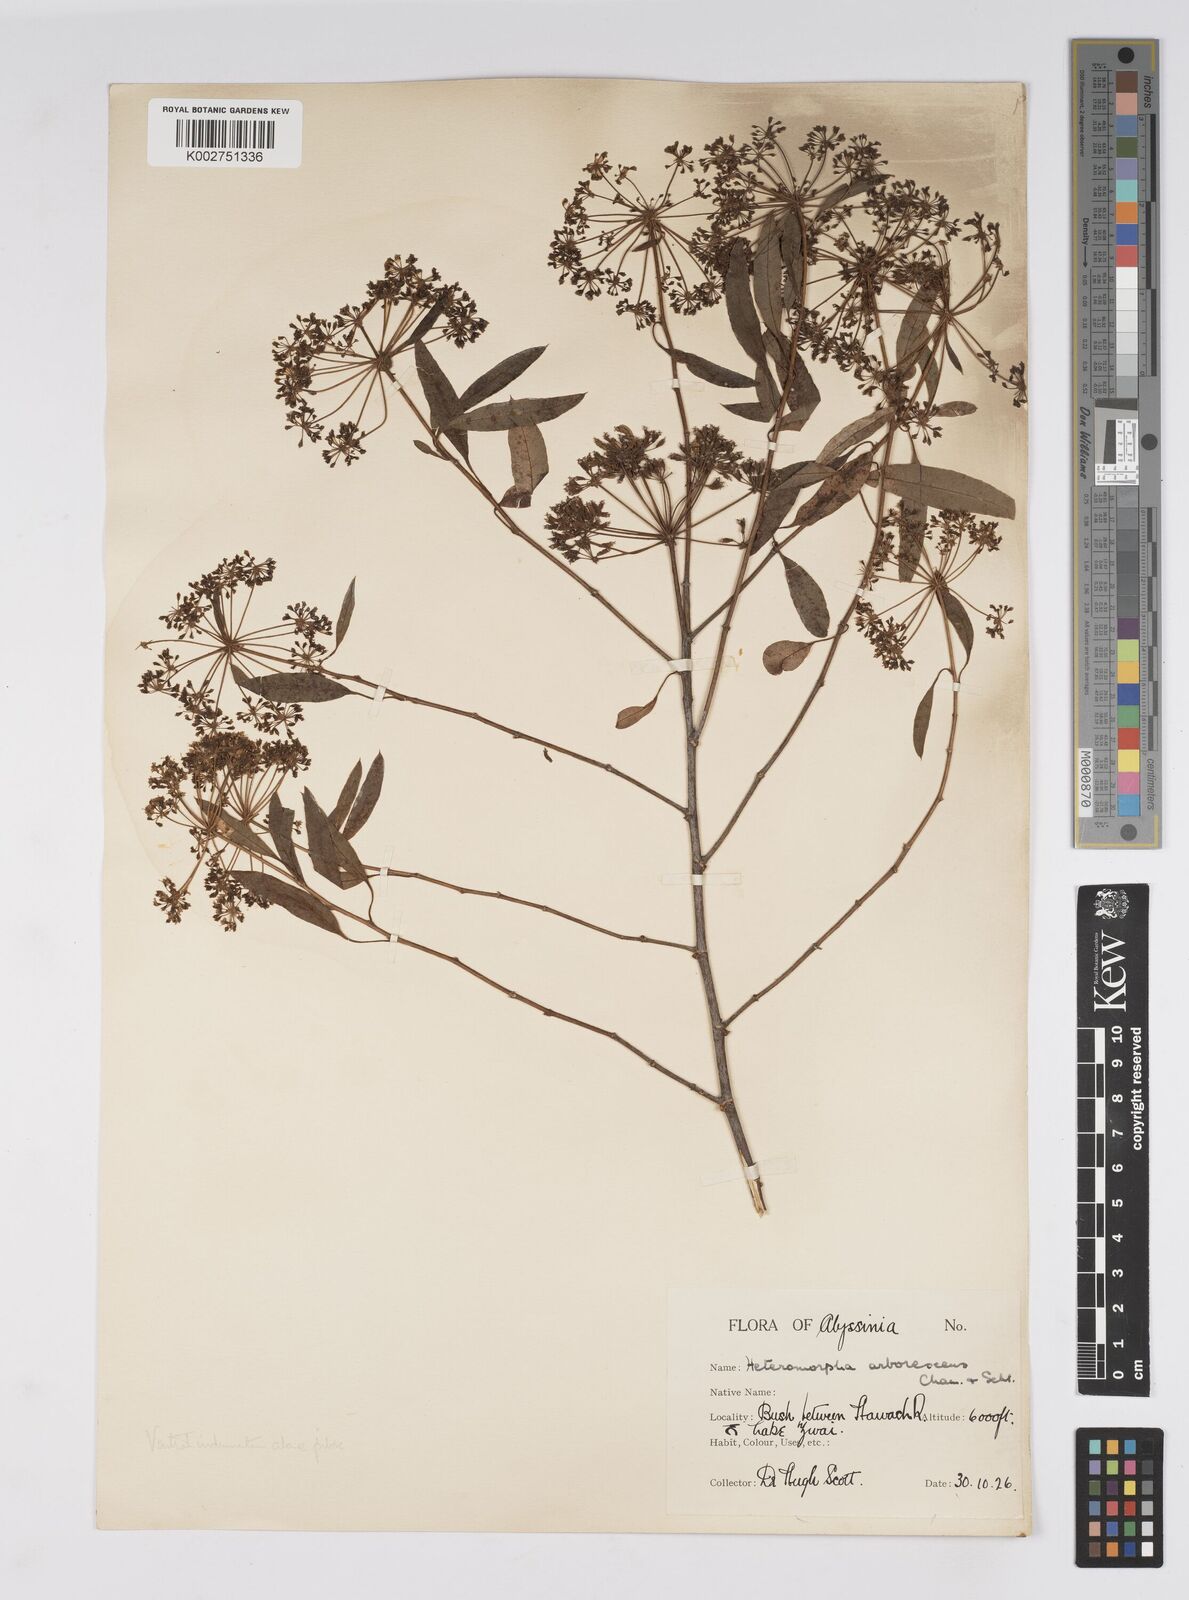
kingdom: Plantae
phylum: Tracheophyta
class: Magnoliopsida
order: Apiales
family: Apiaceae
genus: Heteromorpha
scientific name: Heteromorpha
